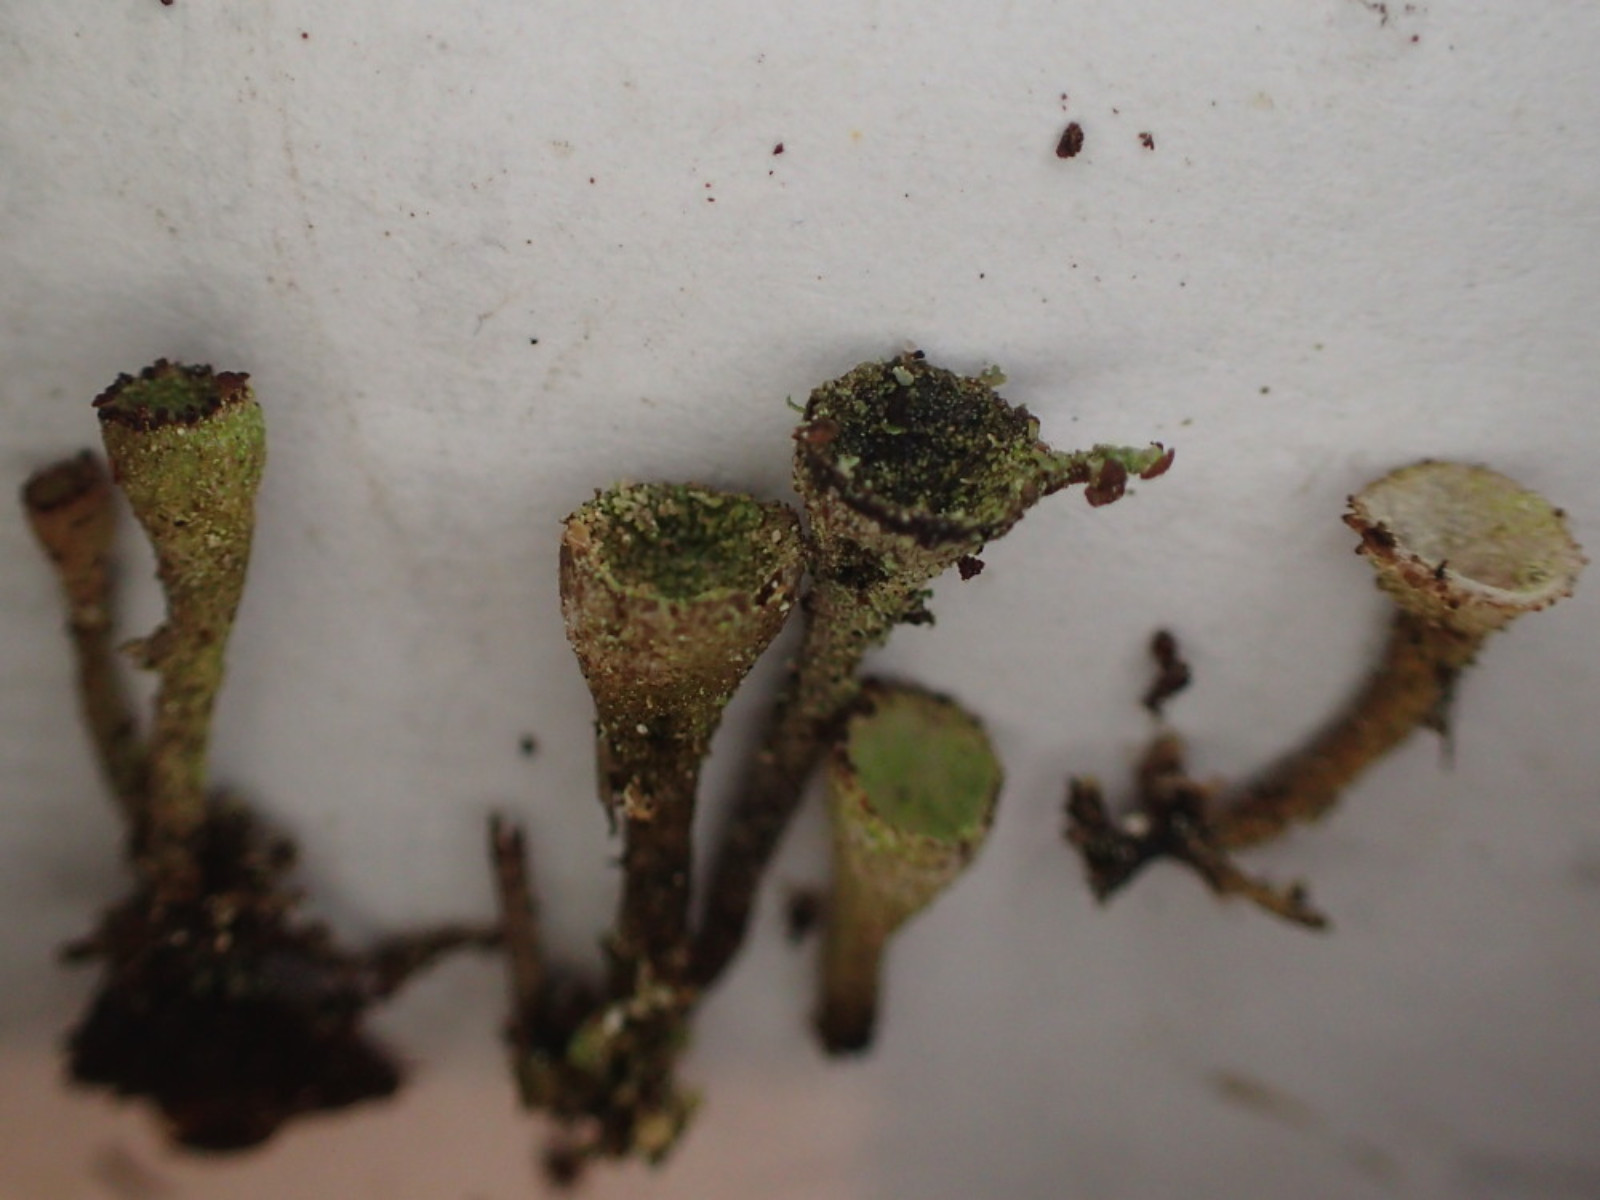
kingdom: Fungi
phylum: Ascomycota
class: Lecanoromycetes
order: Lecanorales
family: Cladoniaceae
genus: Cladonia
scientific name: Cladonia merochlorophaea
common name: mørk bægerlav
